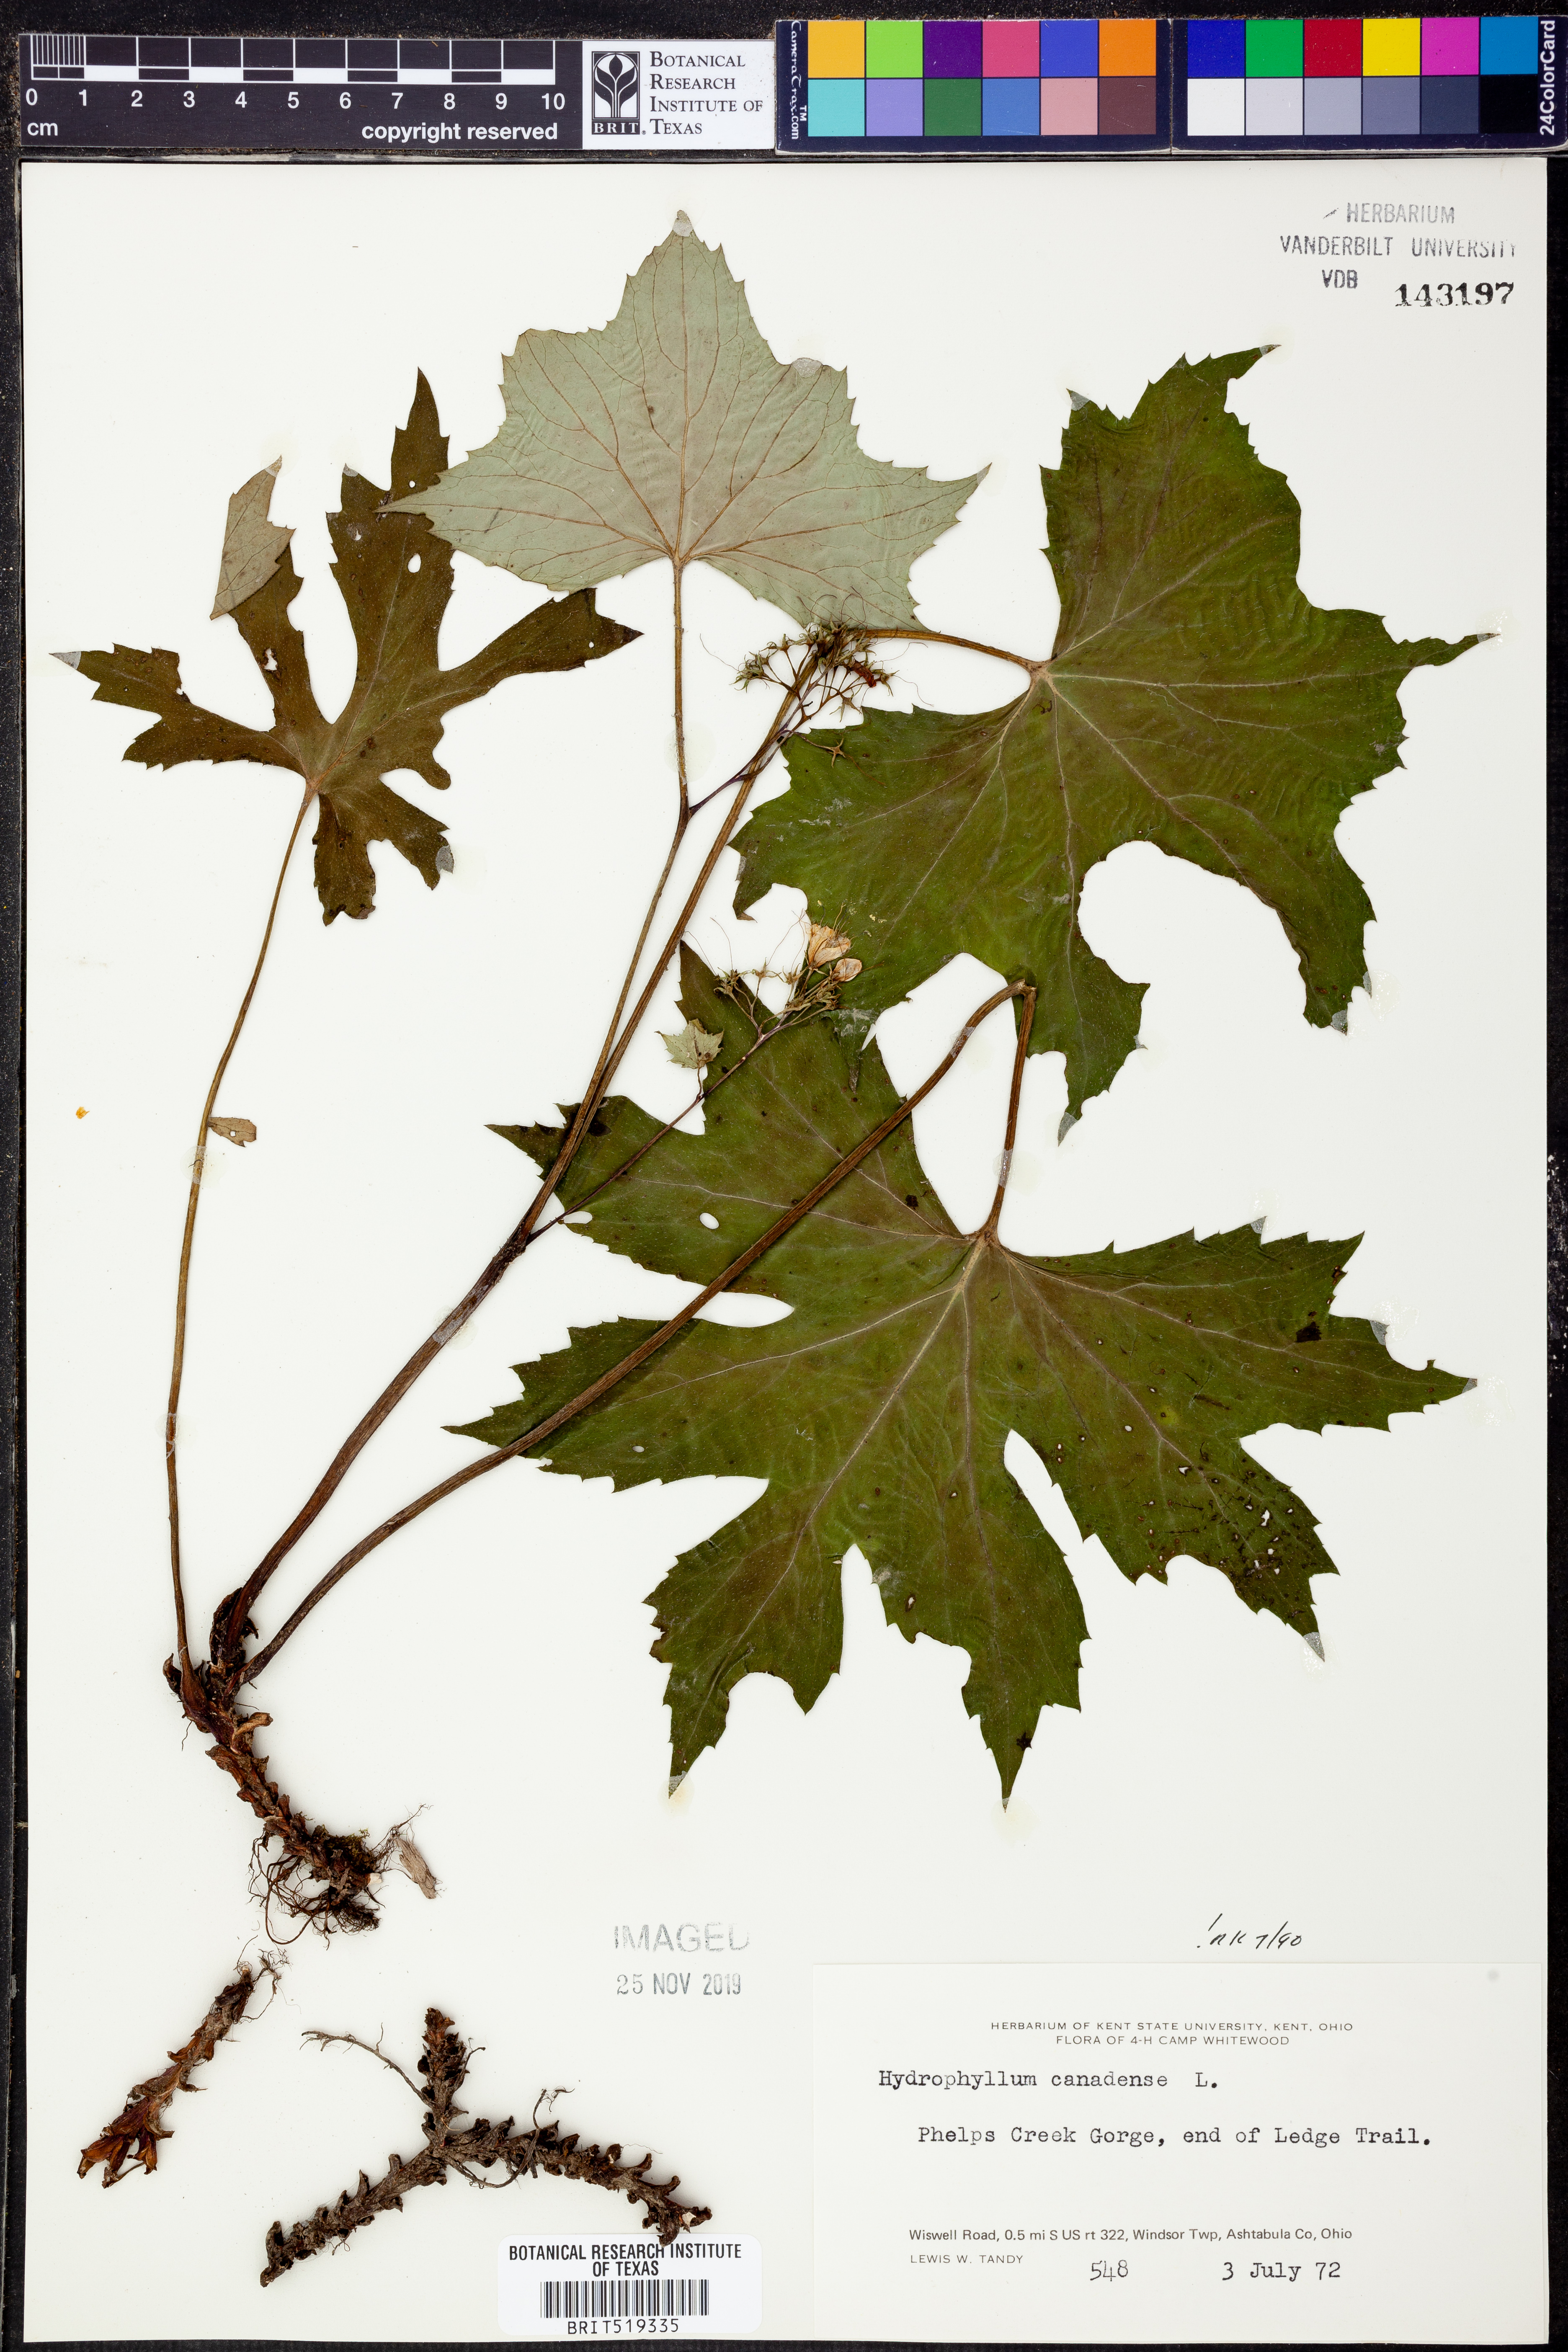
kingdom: Plantae
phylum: Tracheophyta
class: Magnoliopsida
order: Boraginales
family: Hydrophyllaceae
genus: Hydrophyllum
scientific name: Hydrophyllum canadense
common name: Canada waterleaf
